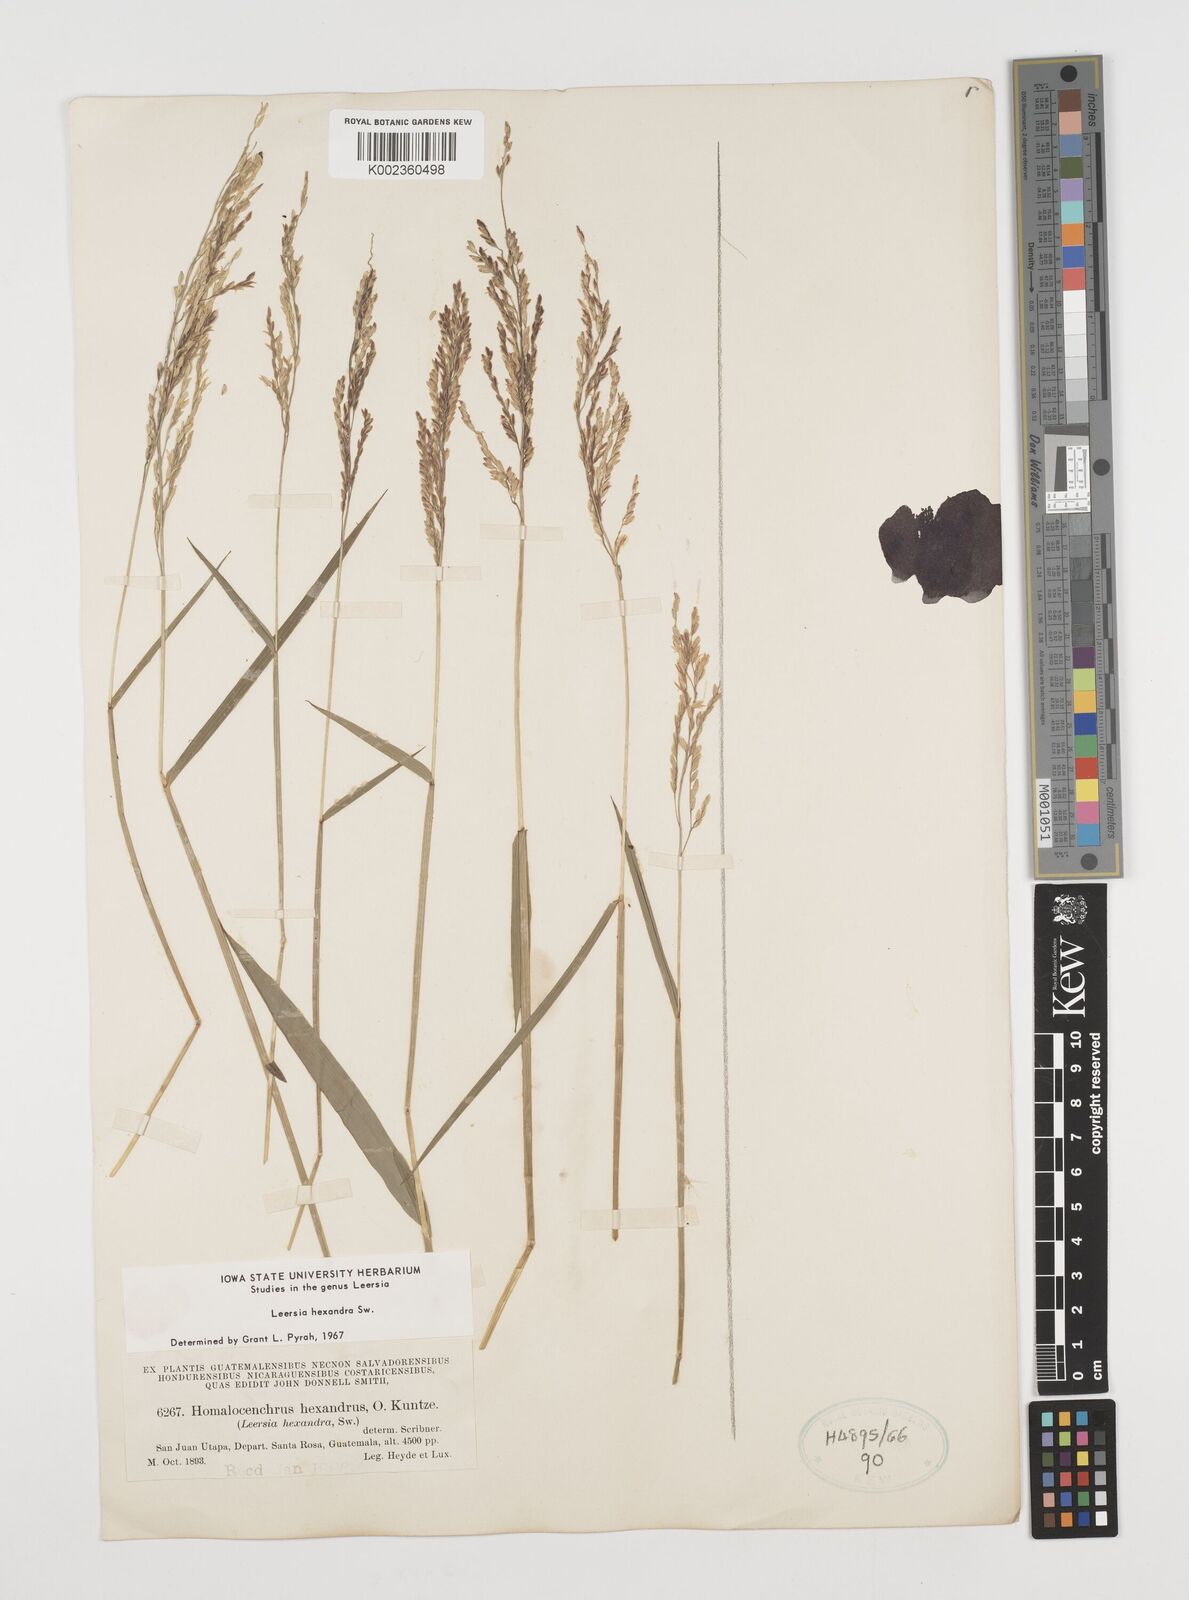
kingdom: Plantae
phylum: Tracheophyta
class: Liliopsida
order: Poales
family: Poaceae
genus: Leersia
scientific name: Leersia hexandra
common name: Southern cut grass
